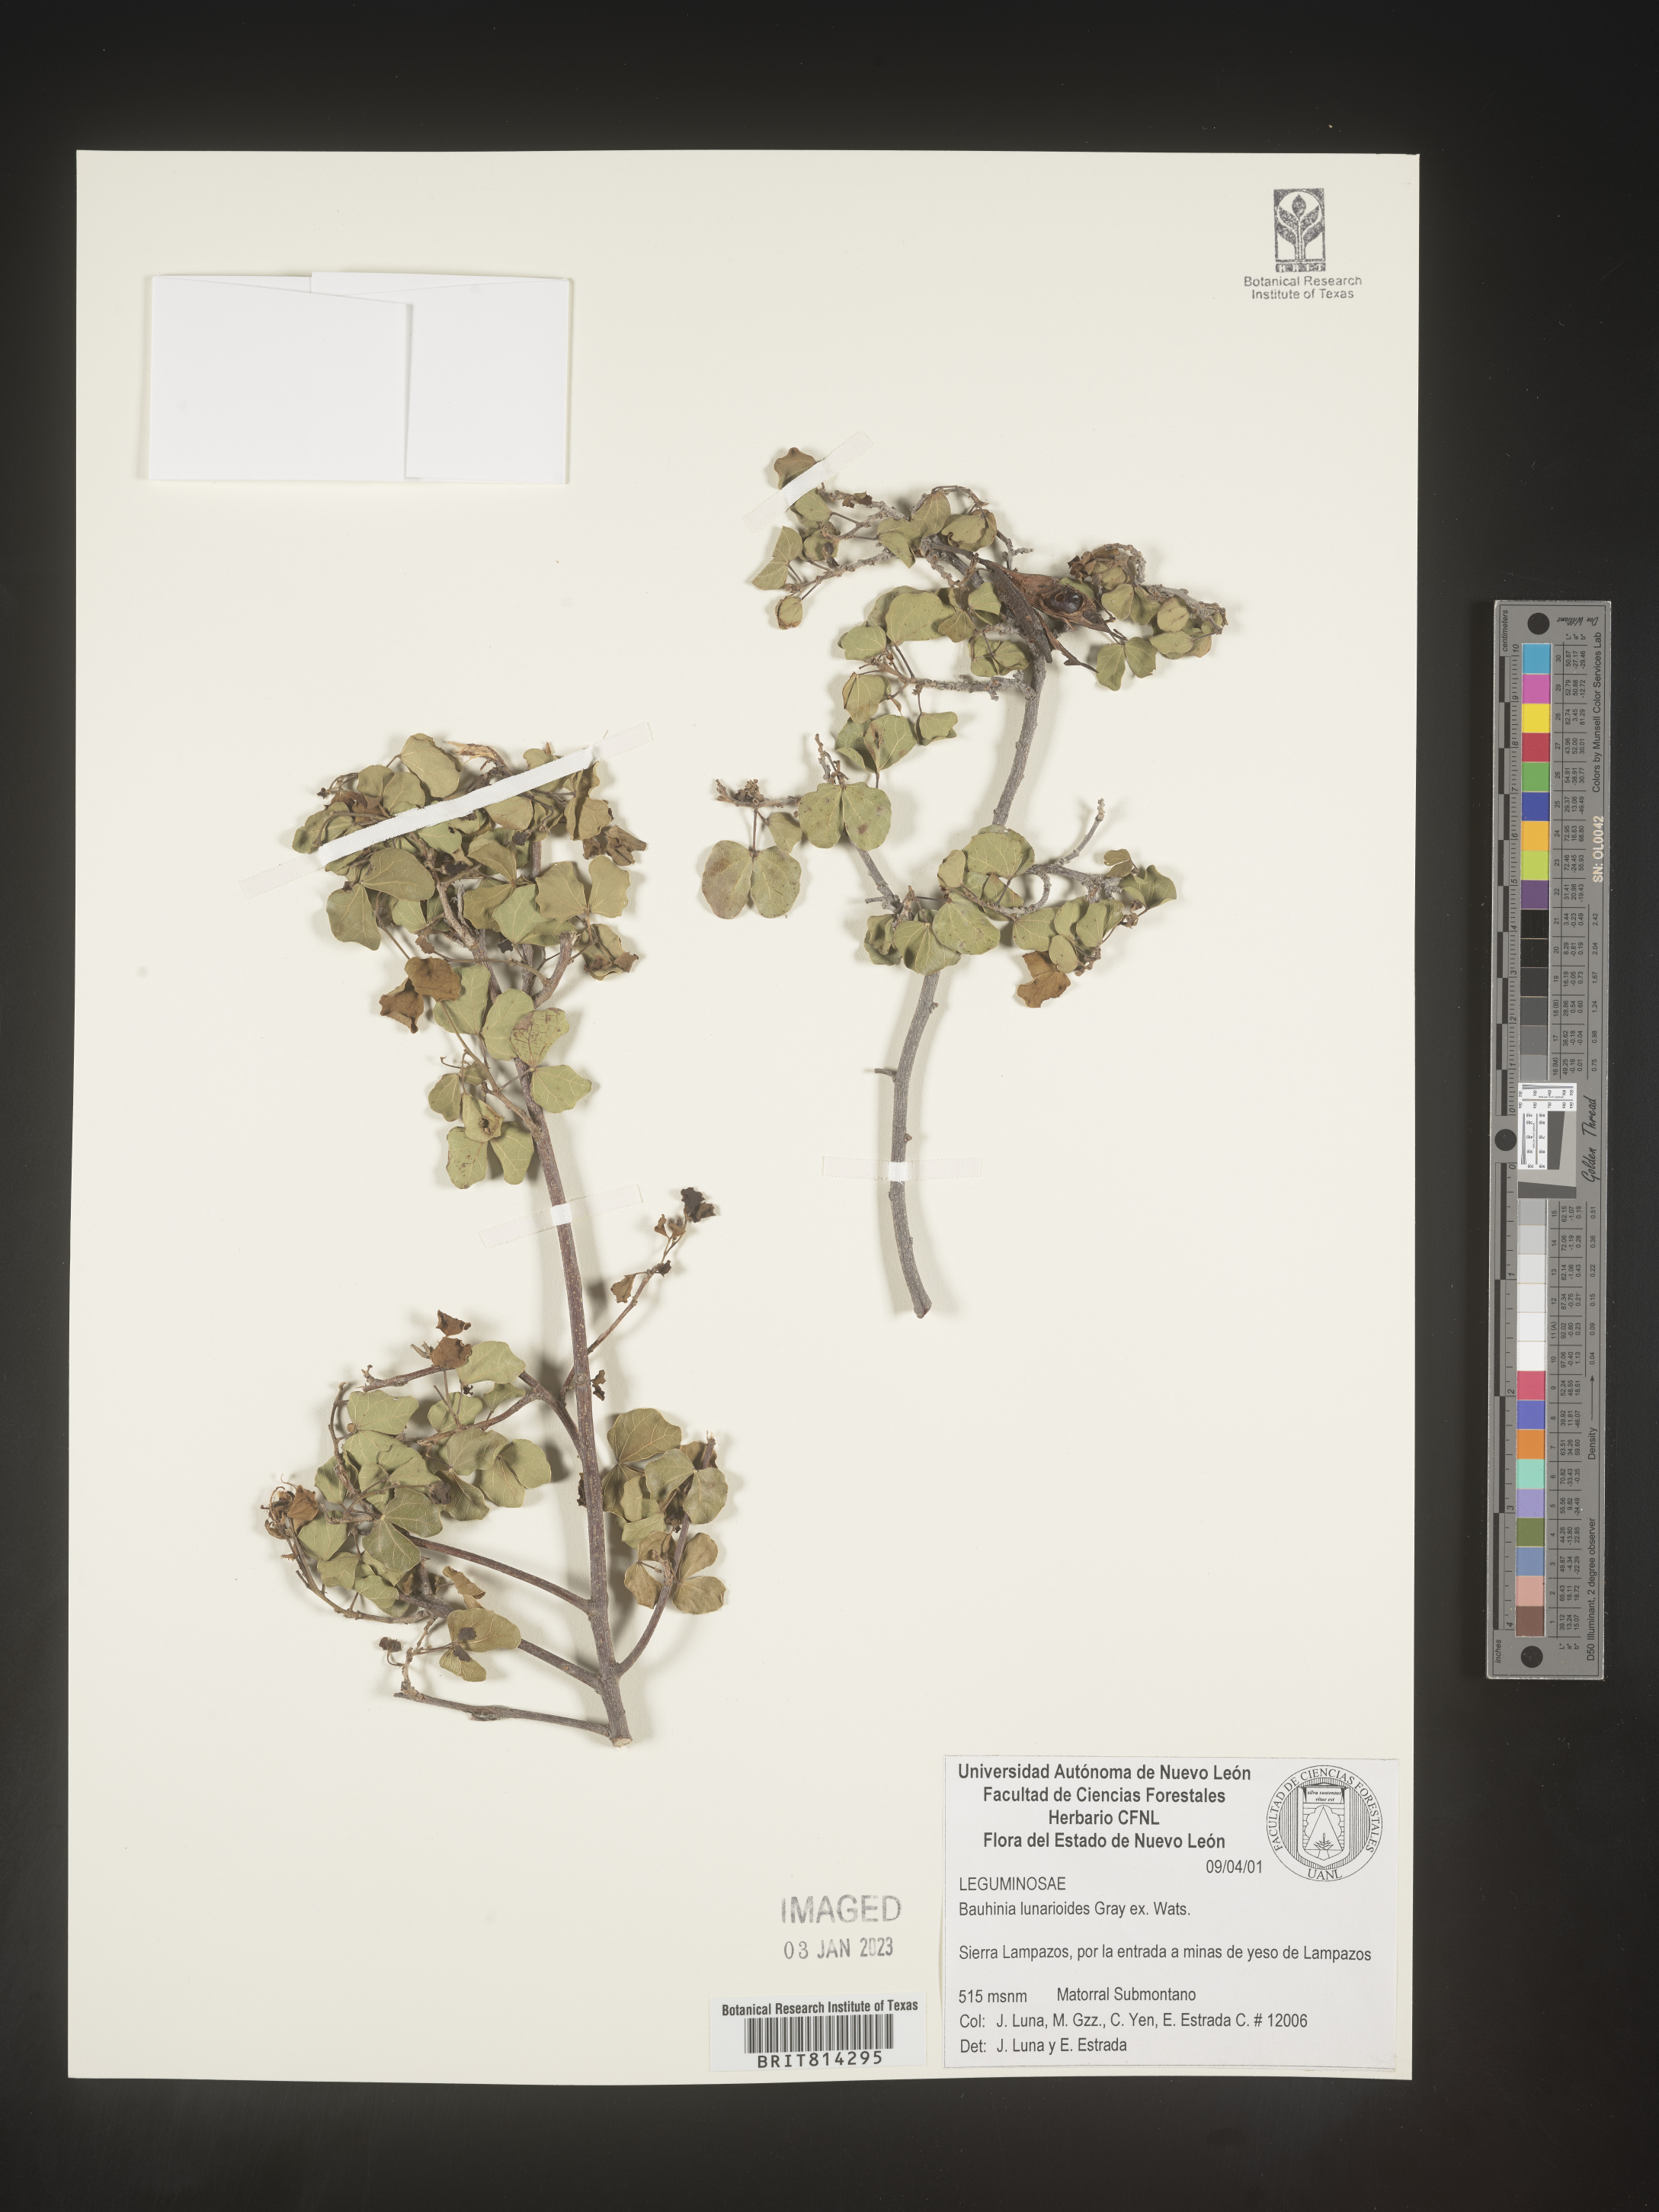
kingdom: Plantae
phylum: Tracheophyta
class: Magnoliopsida
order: Fabales
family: Fabaceae
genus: Bauhinia
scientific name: Bauhinia
